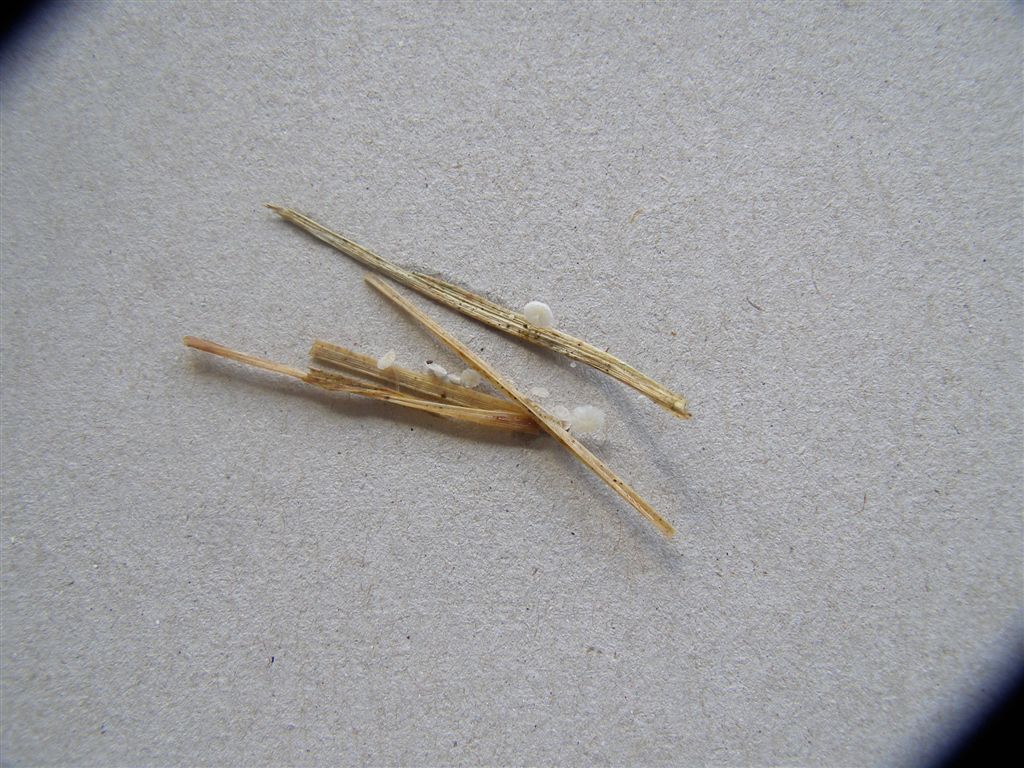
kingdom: Fungi
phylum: Basidiomycota
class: Agaricomycetes
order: Agaricales
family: Mycenaceae
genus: Resinomycena
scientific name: Resinomycena saccharifera
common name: sukkerhat
